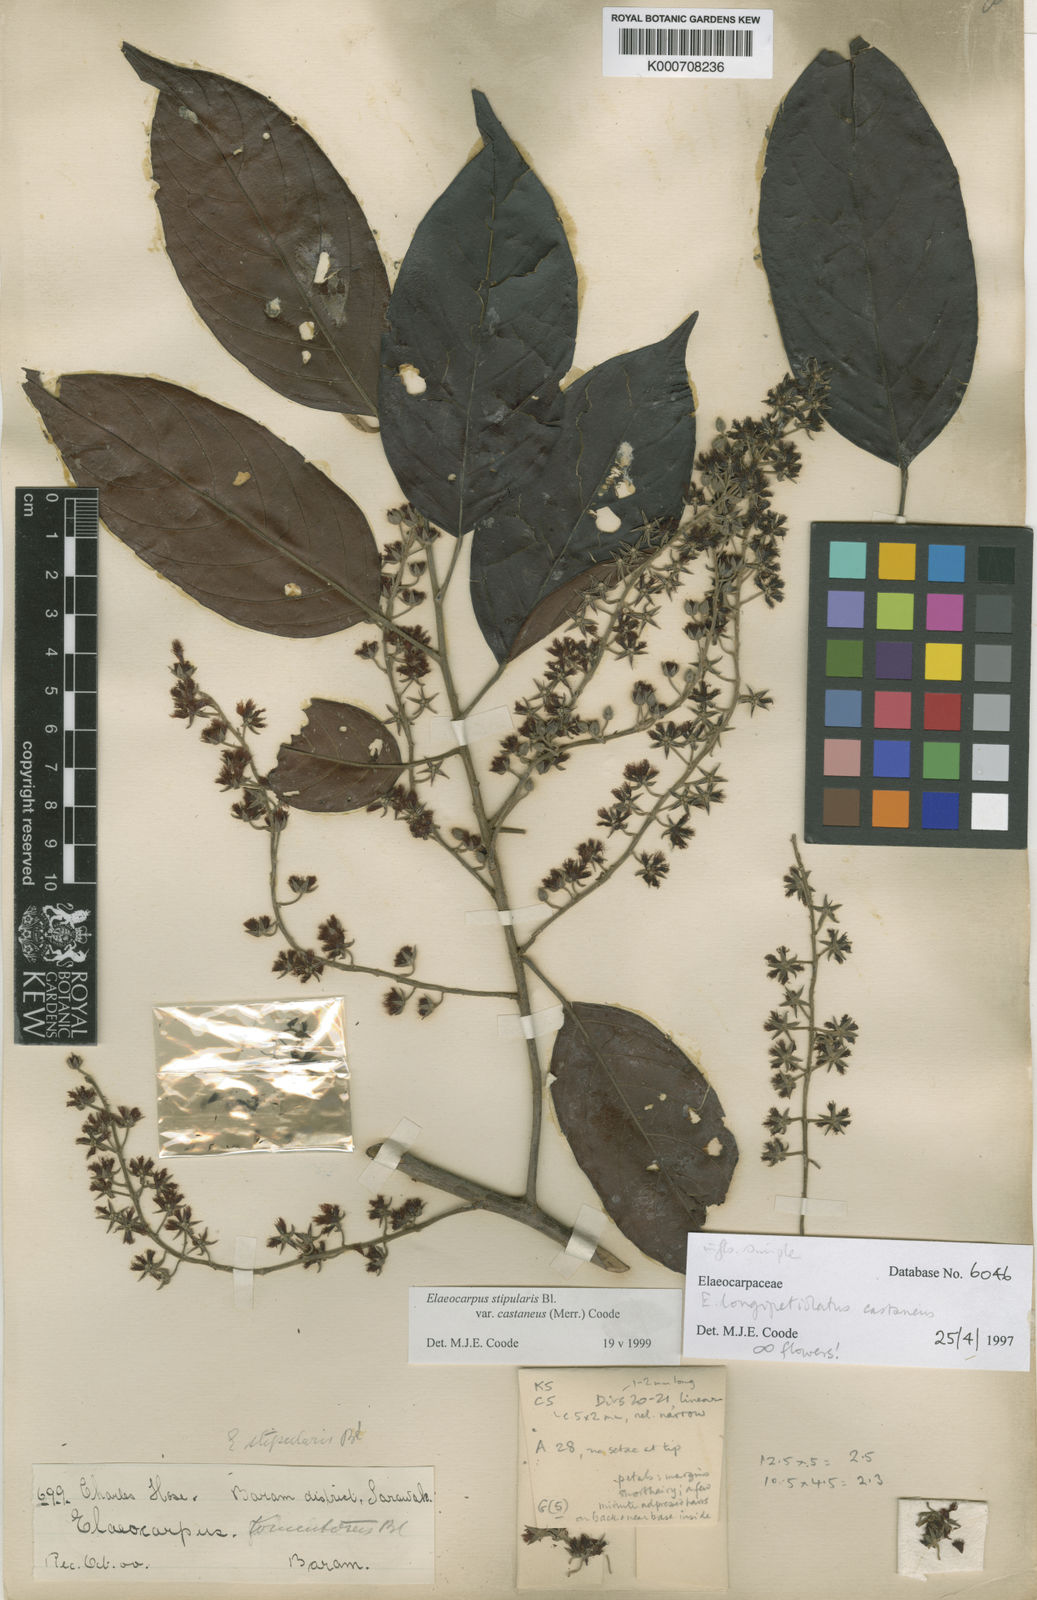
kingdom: Plantae
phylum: Tracheophyta
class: Magnoliopsida
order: Oxalidales
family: Elaeocarpaceae
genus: Elaeocarpus
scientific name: Elaeocarpus stipularis
